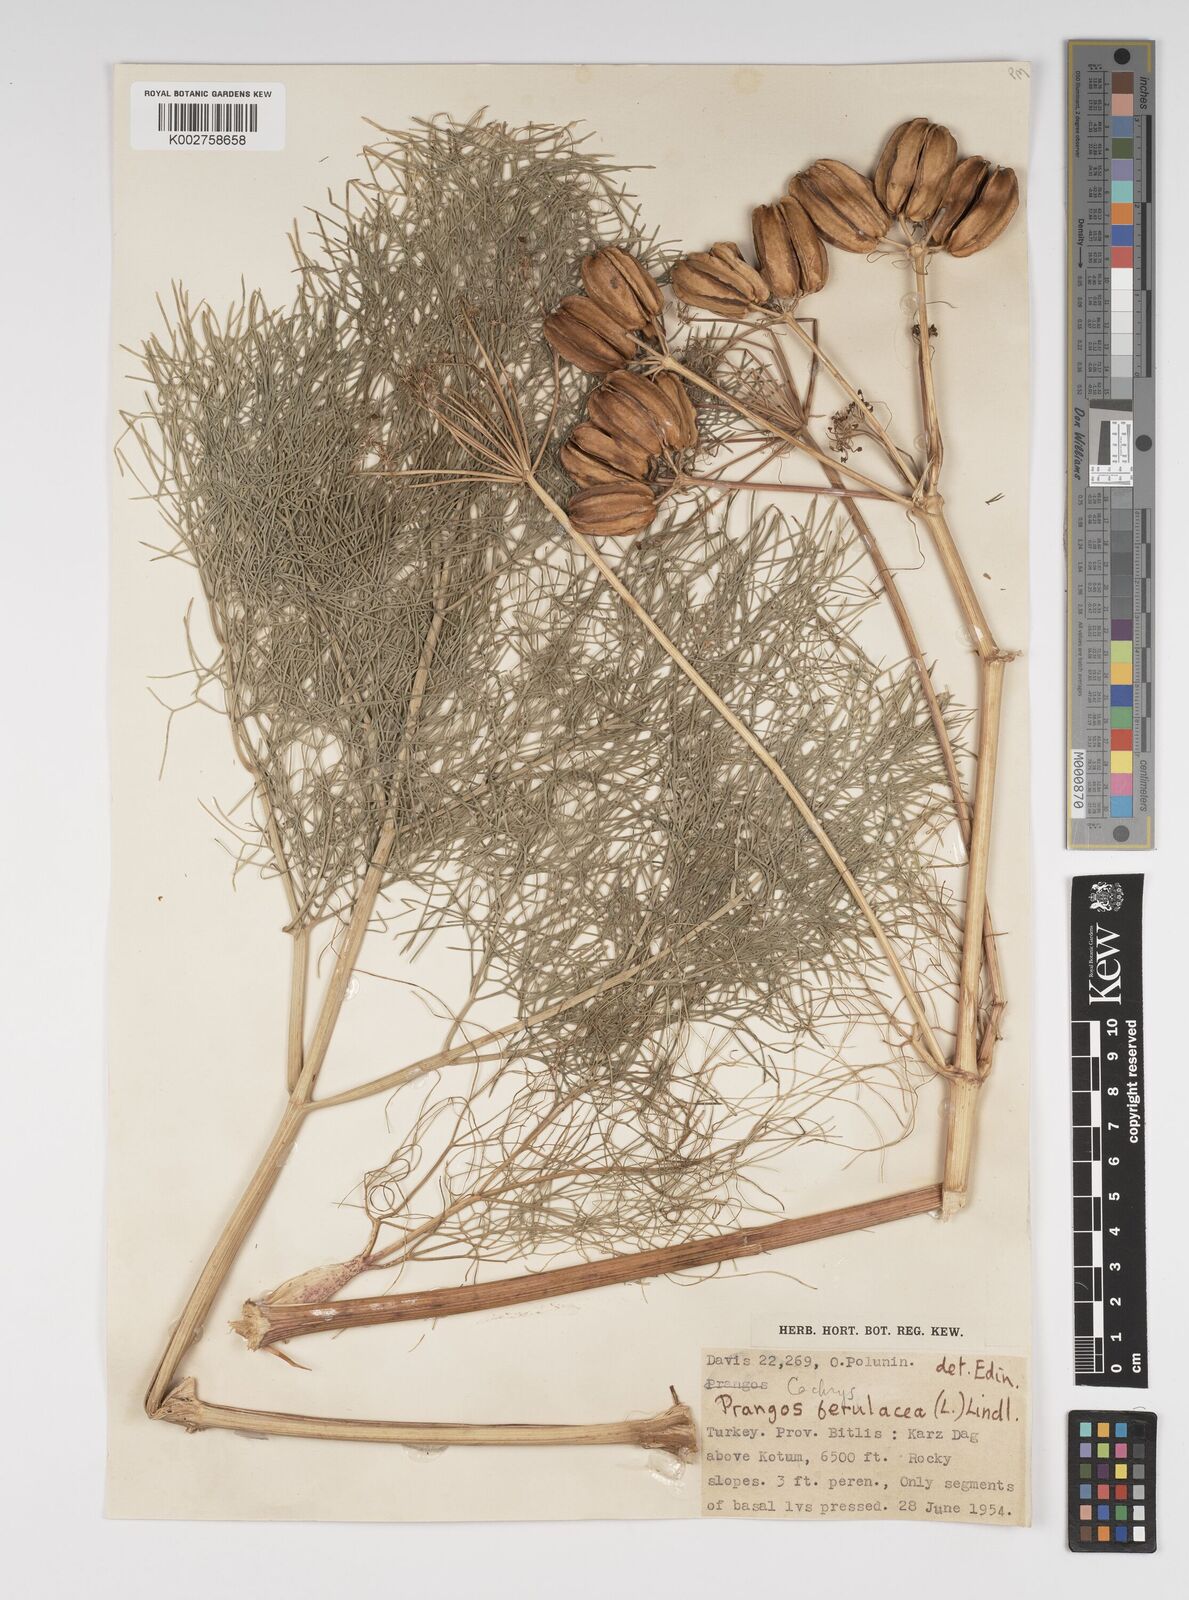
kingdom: Plantae
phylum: Tracheophyta
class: Magnoliopsida
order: Apiales
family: Apiaceae
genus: Prangos
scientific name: Prangos ferulacea
